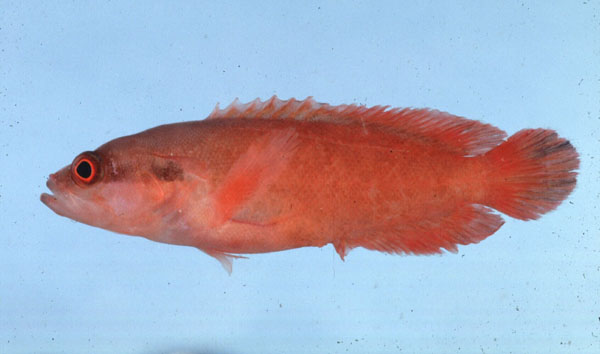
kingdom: Animalia
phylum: Chordata
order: Perciformes
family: Serranidae
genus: Suttonia
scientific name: Suttonia suttoni
